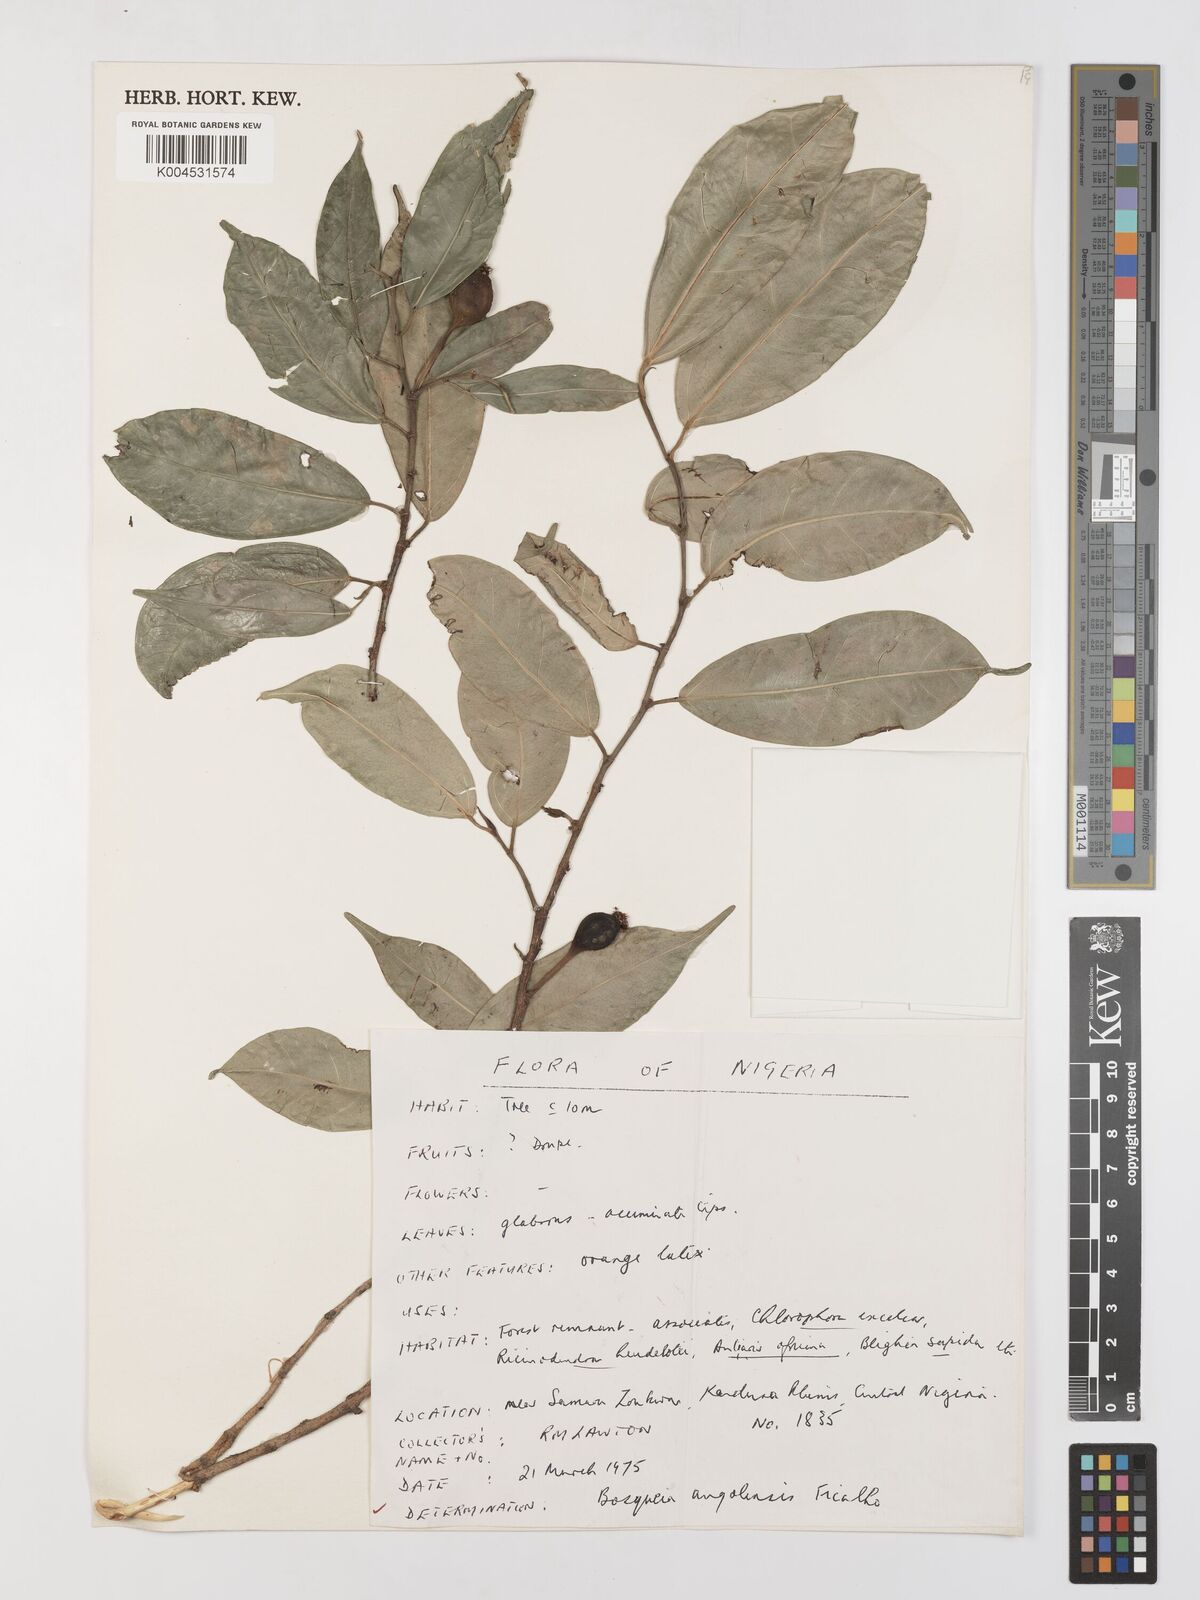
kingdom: Plantae
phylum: Tracheophyta
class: Magnoliopsida
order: Rosales
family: Moraceae
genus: Trilepisium
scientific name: Trilepisium madagascariense
